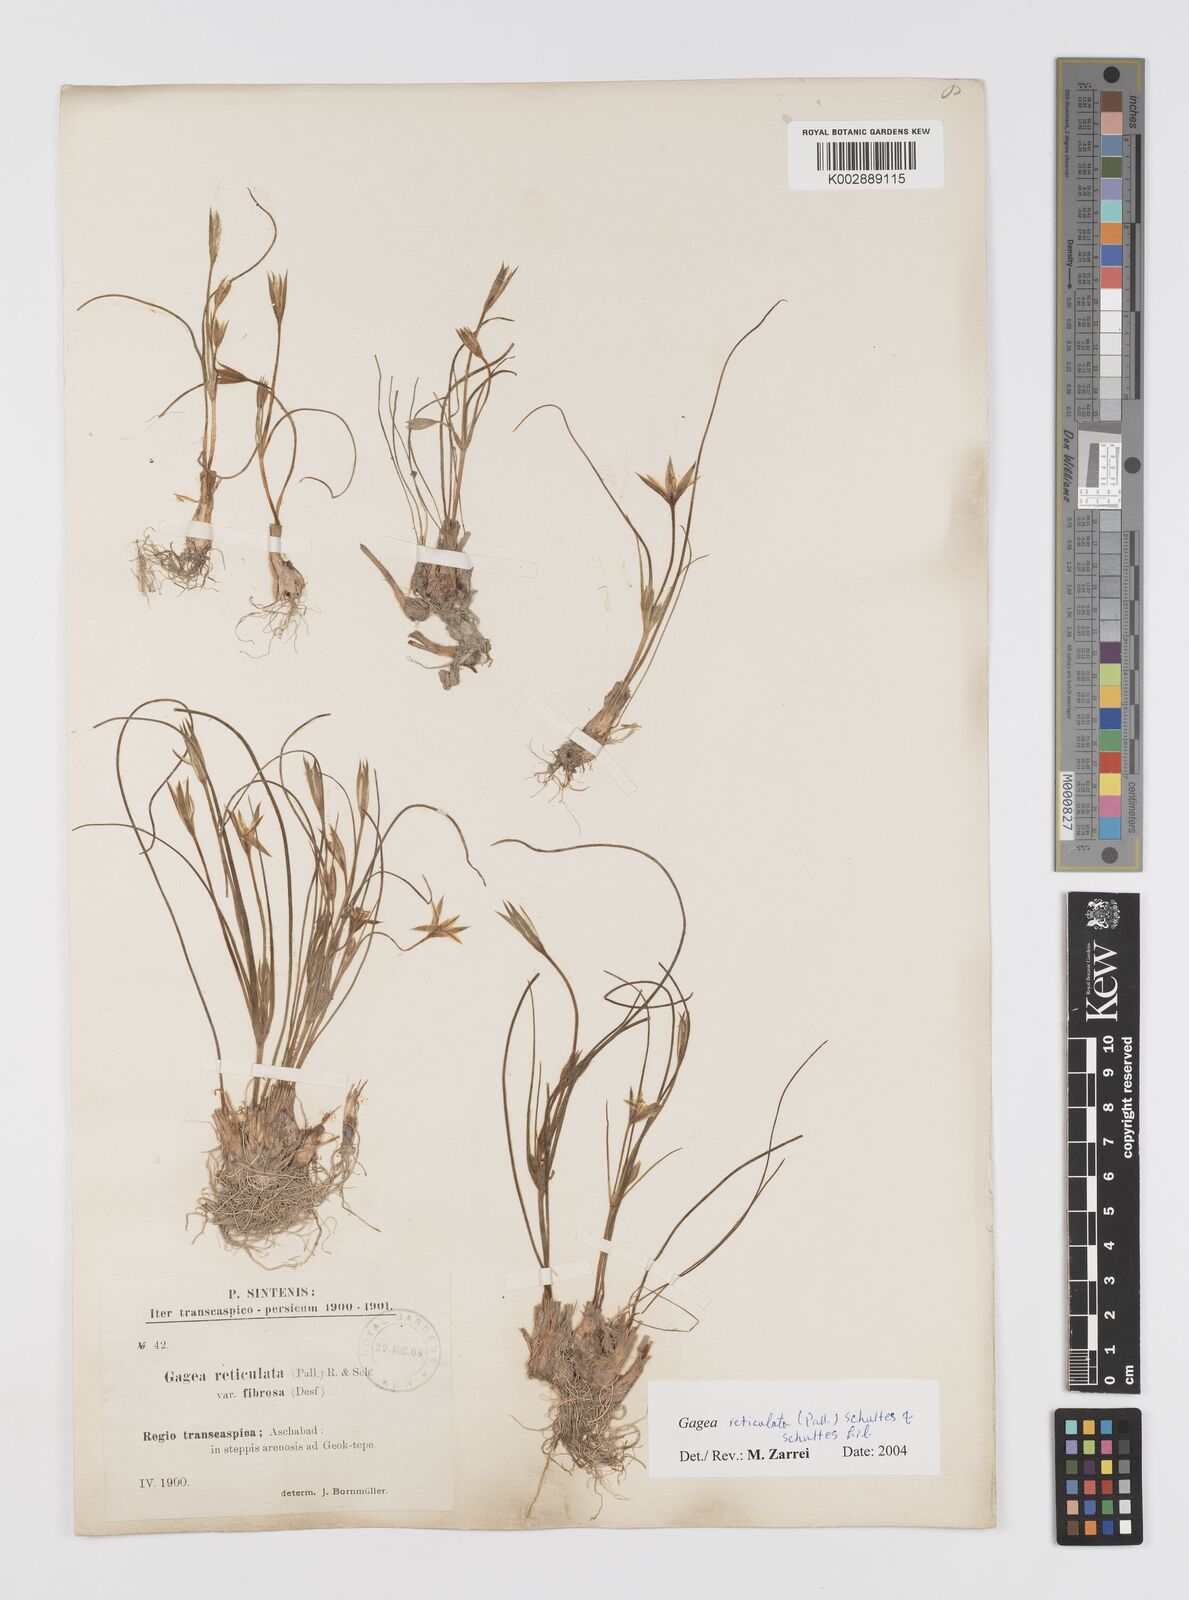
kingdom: Plantae
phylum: Tracheophyta
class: Liliopsida
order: Liliales
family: Liliaceae
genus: Gagea
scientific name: Gagea reticulata
